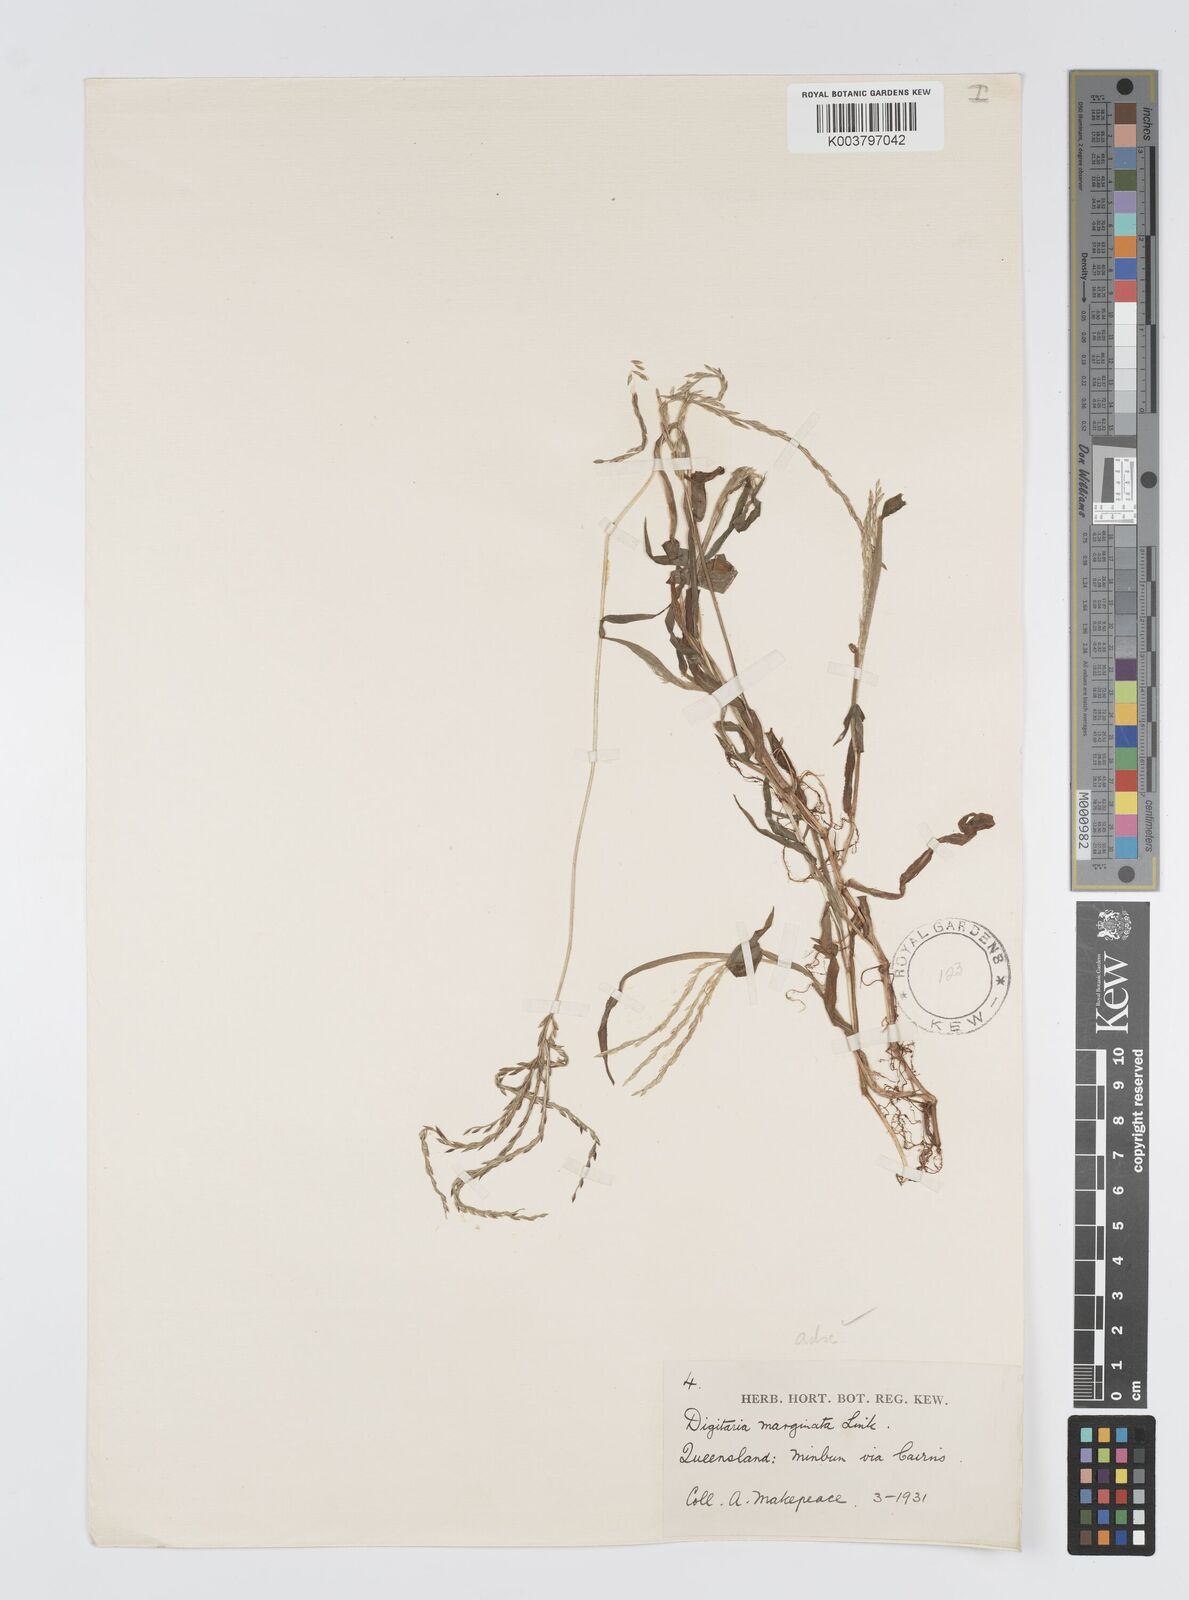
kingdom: Plantae
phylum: Tracheophyta
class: Liliopsida
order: Poales
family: Poaceae
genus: Digitaria
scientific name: Digitaria ciliaris
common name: Tropical finger-grass
